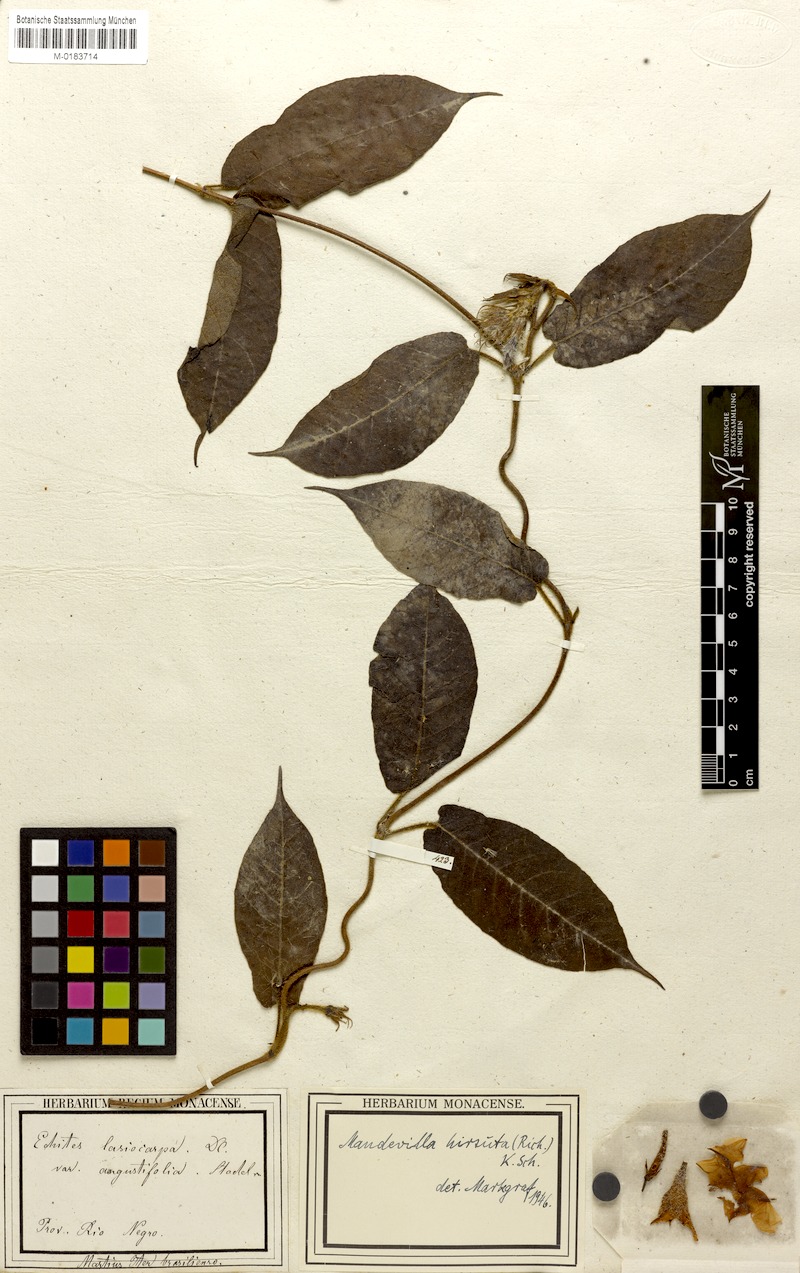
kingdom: Plantae
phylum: Tracheophyta
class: Magnoliopsida
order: Gentianales
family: Apocynaceae
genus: Mandevilla
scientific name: Mandevilla hirsuta
